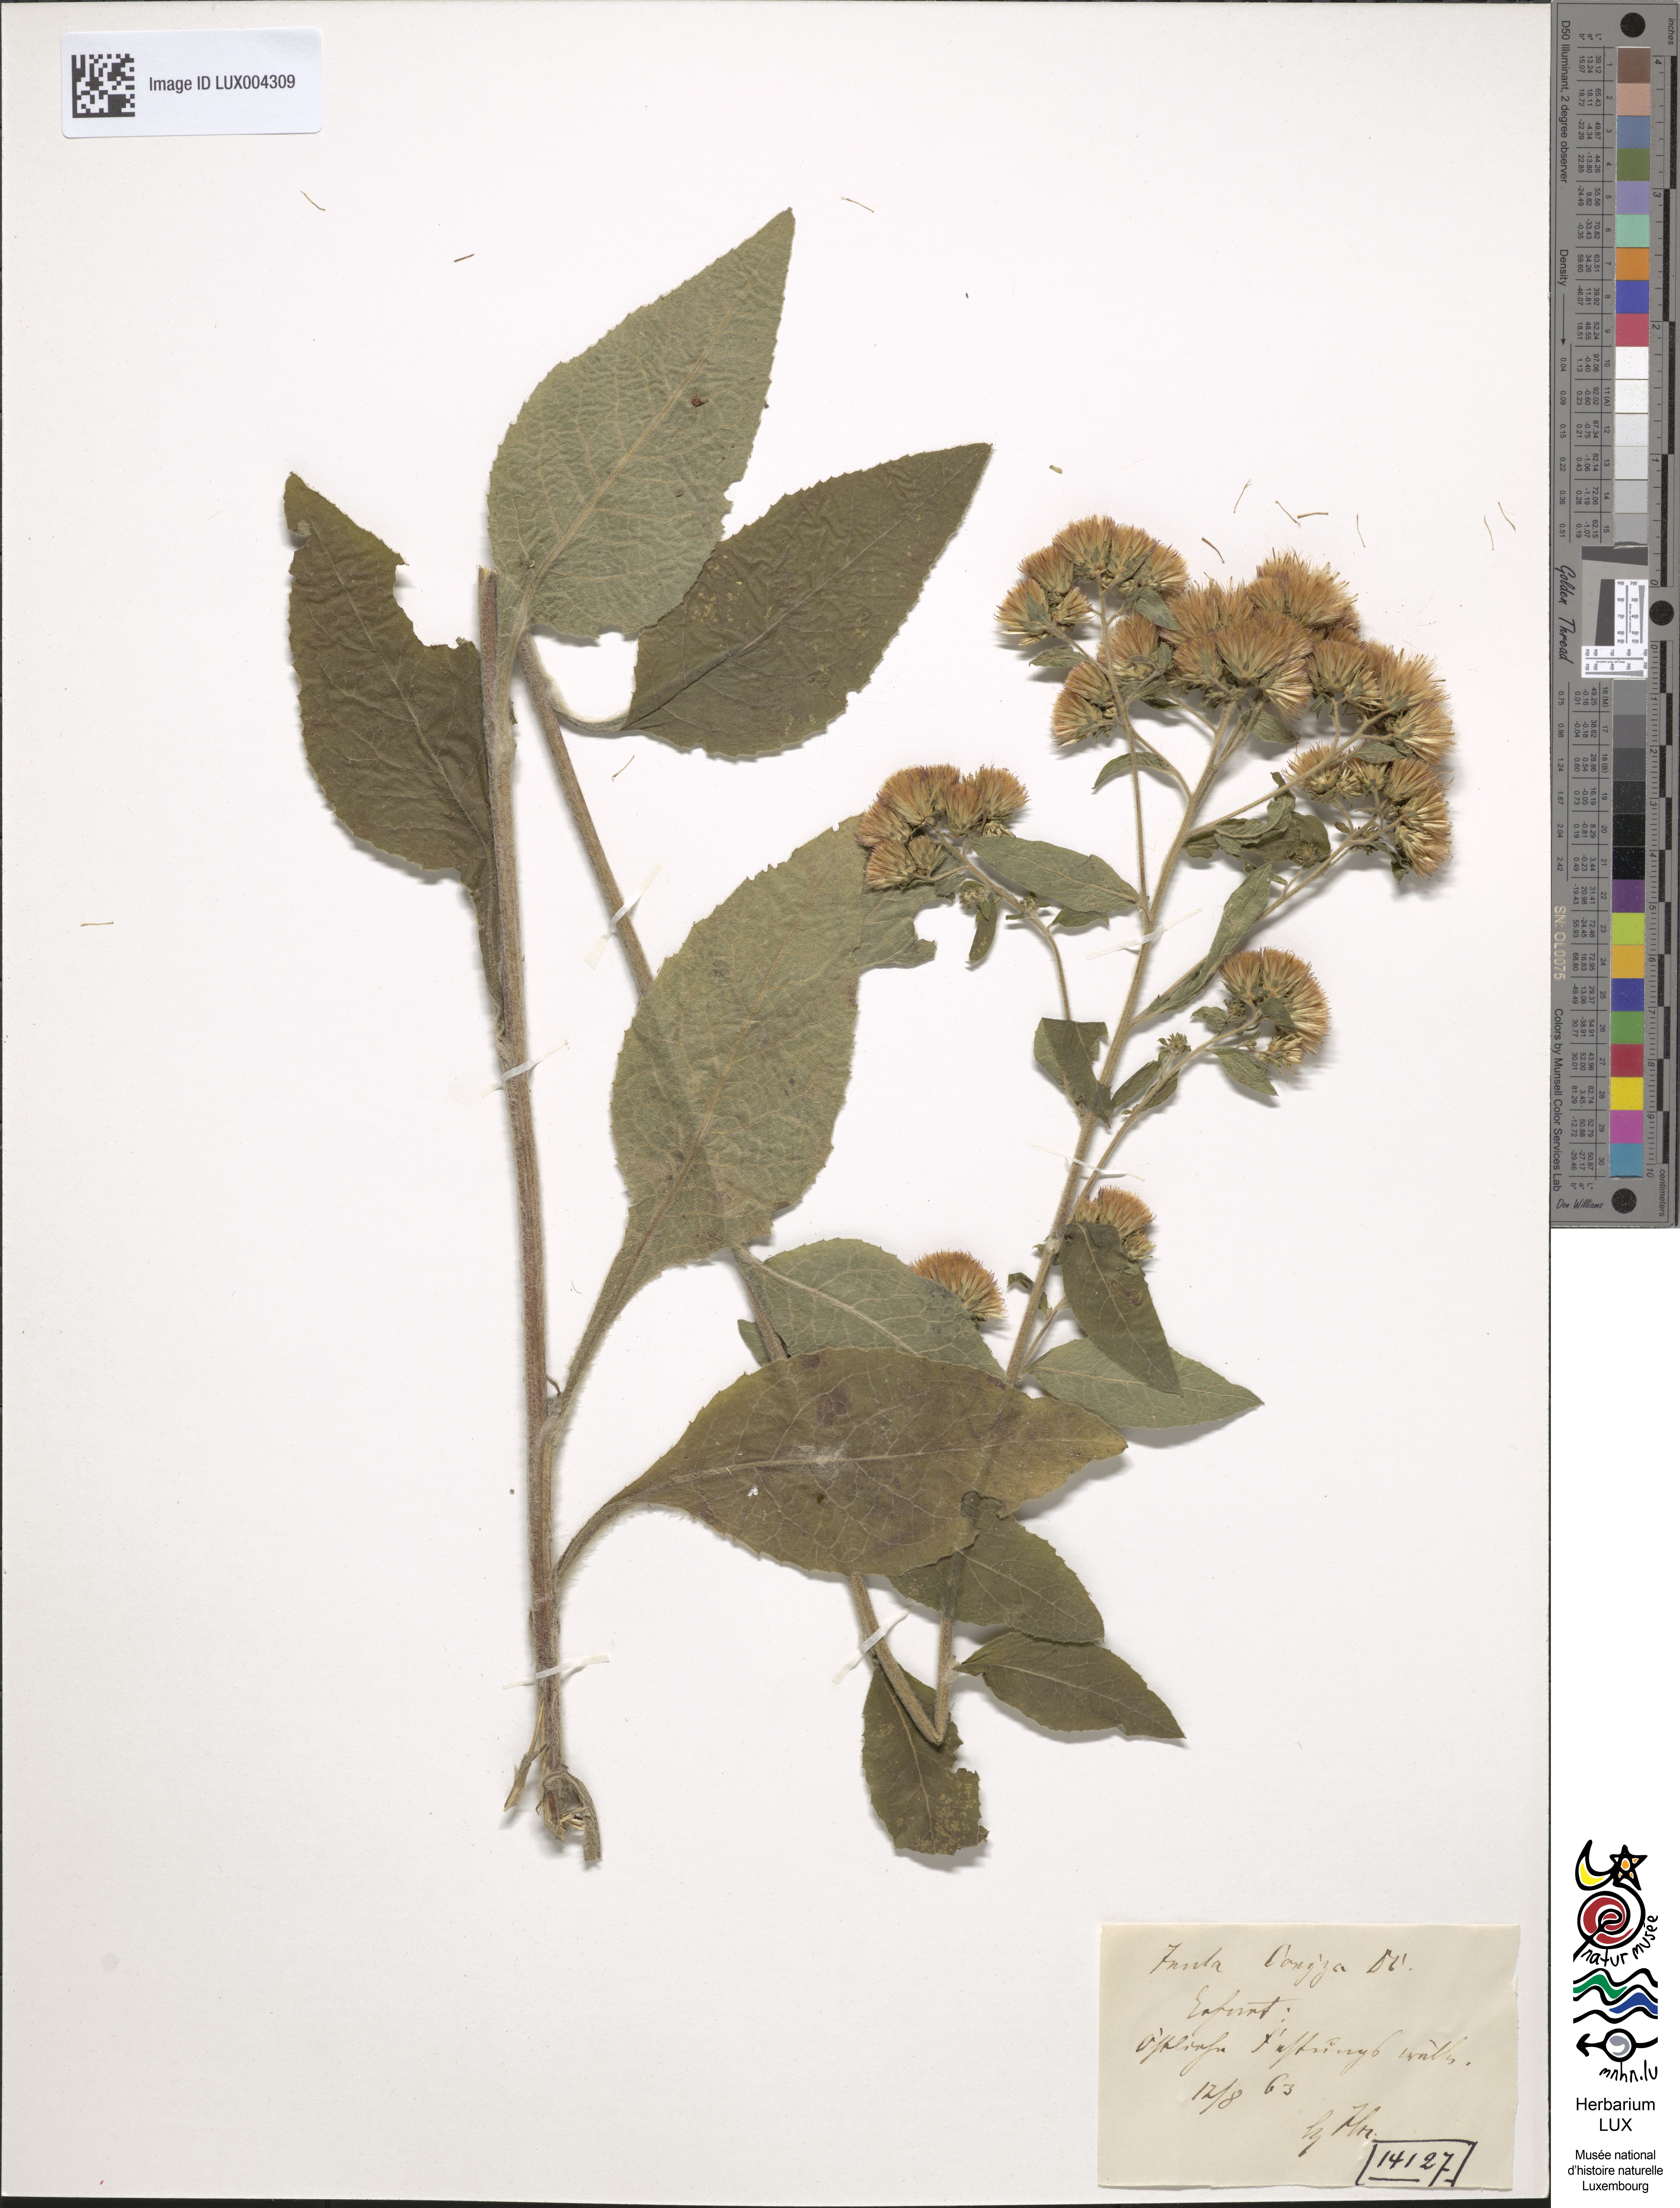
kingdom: Plantae
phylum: Tracheophyta
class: Magnoliopsida
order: Asterales
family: Asteraceae
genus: Pentanema
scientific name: Pentanema squarrosum
